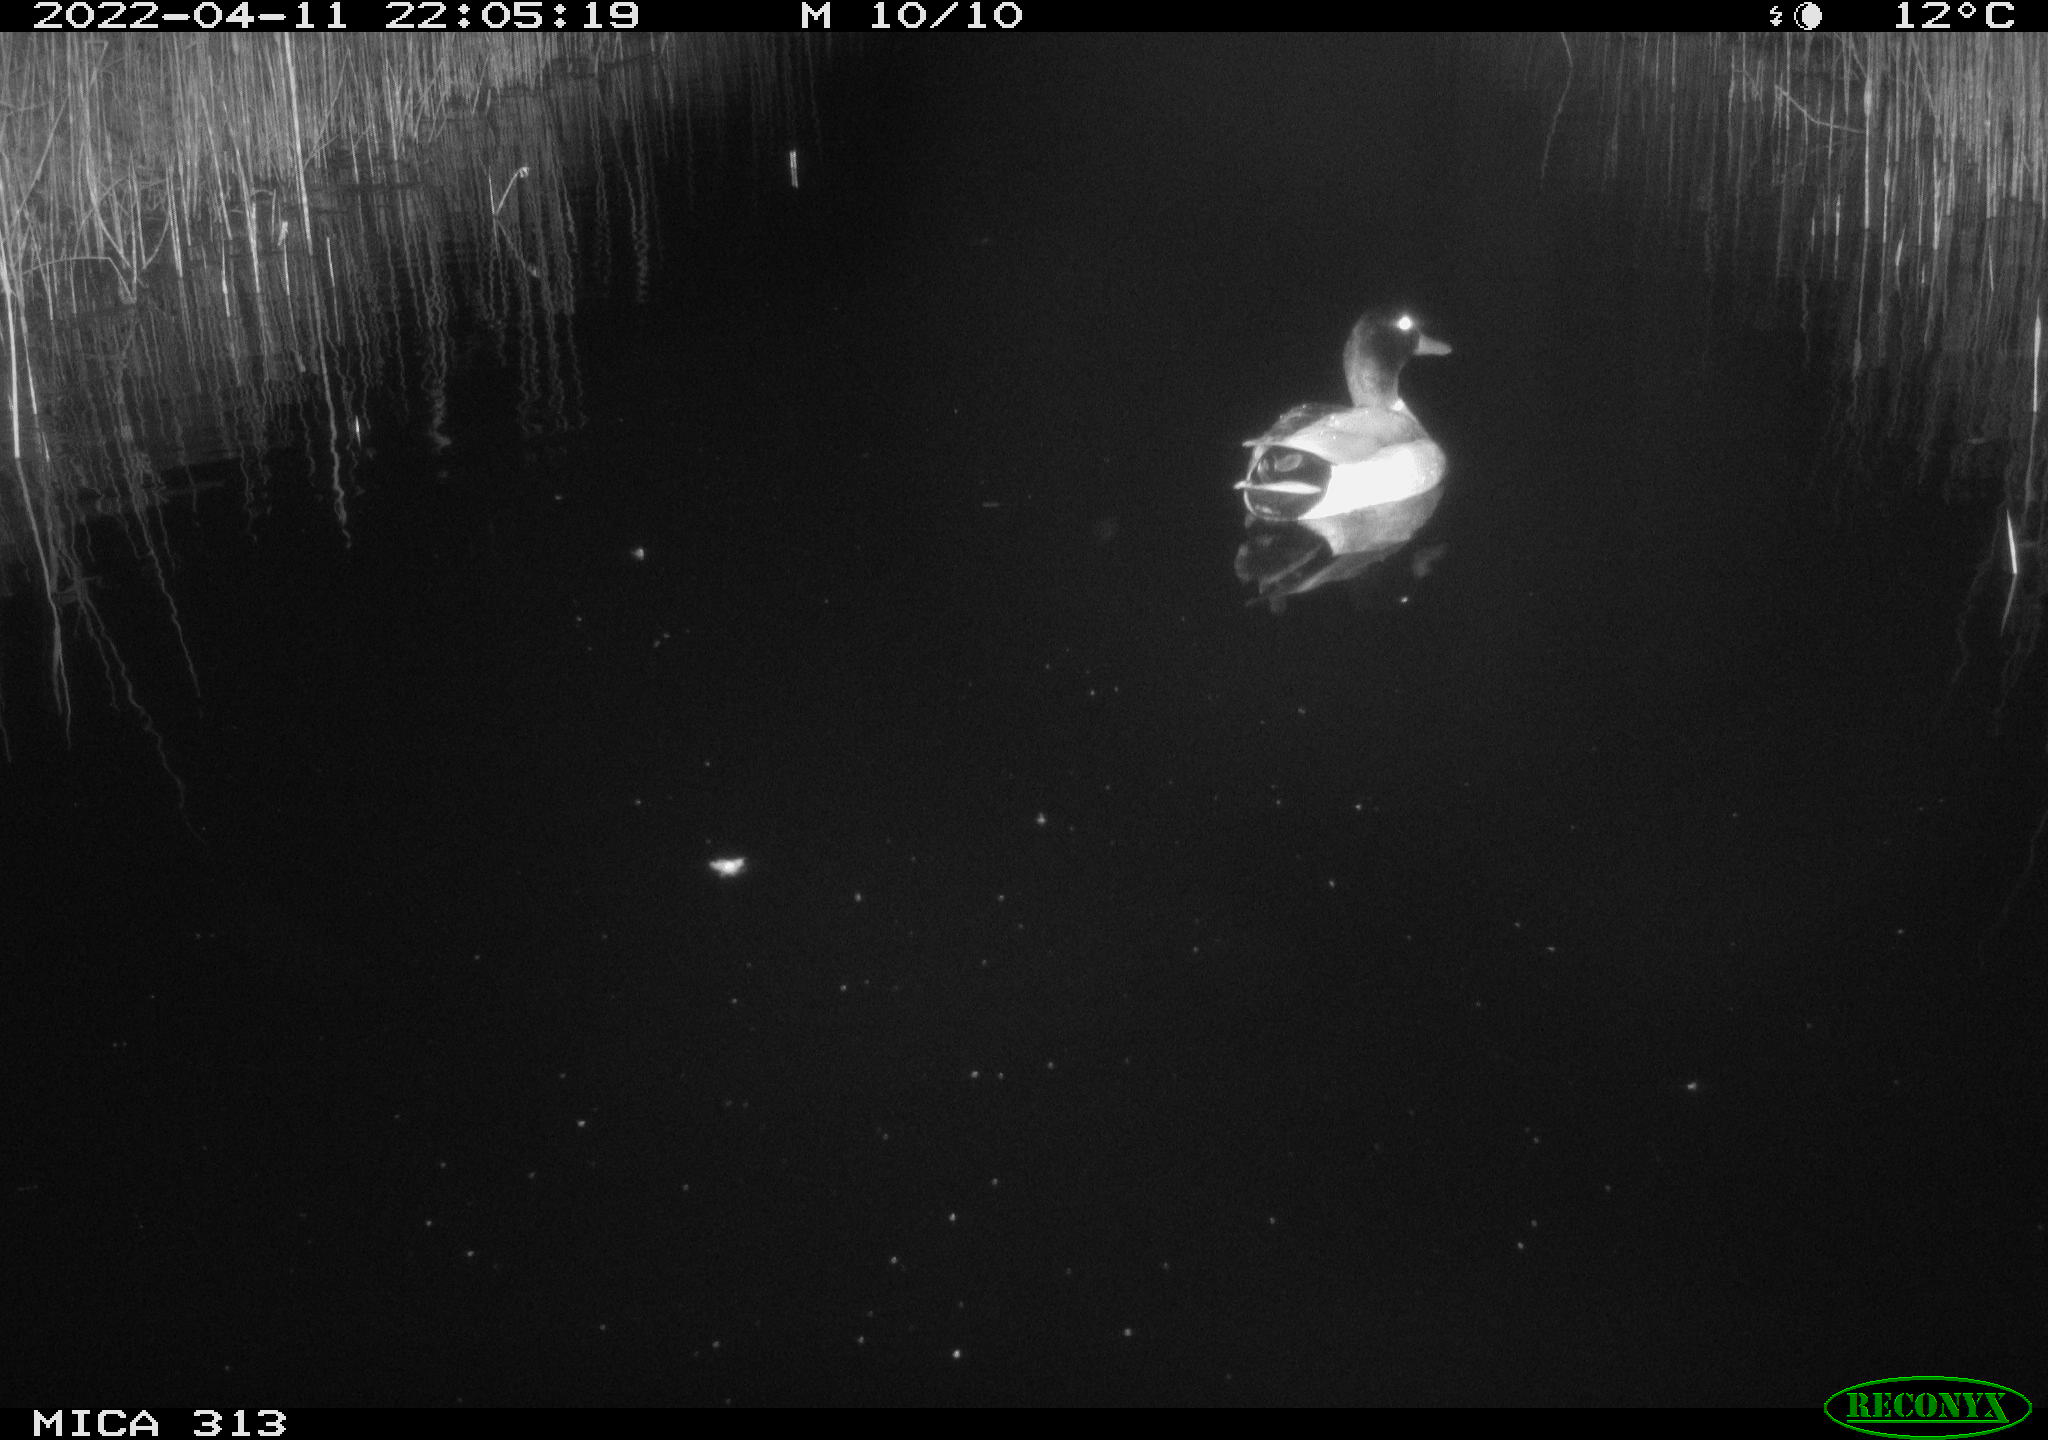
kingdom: Animalia
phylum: Chordata
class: Aves
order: Anseriformes
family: Anatidae
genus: Anas
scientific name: Anas platyrhynchos
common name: Mallard
